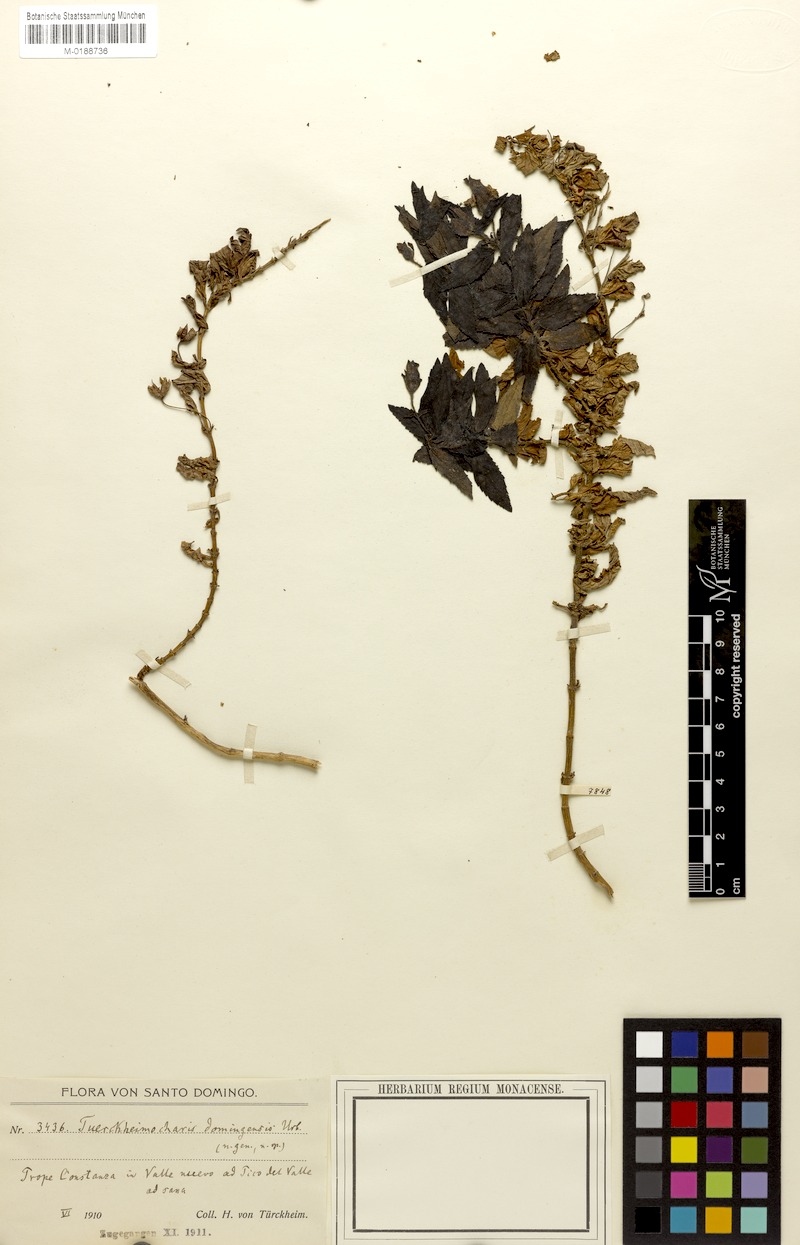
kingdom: Plantae
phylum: Tracheophyta
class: Magnoliopsida
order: Lamiales
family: Scrophulariaceae
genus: Scrophularia
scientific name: Scrophularia tuerckheimii
